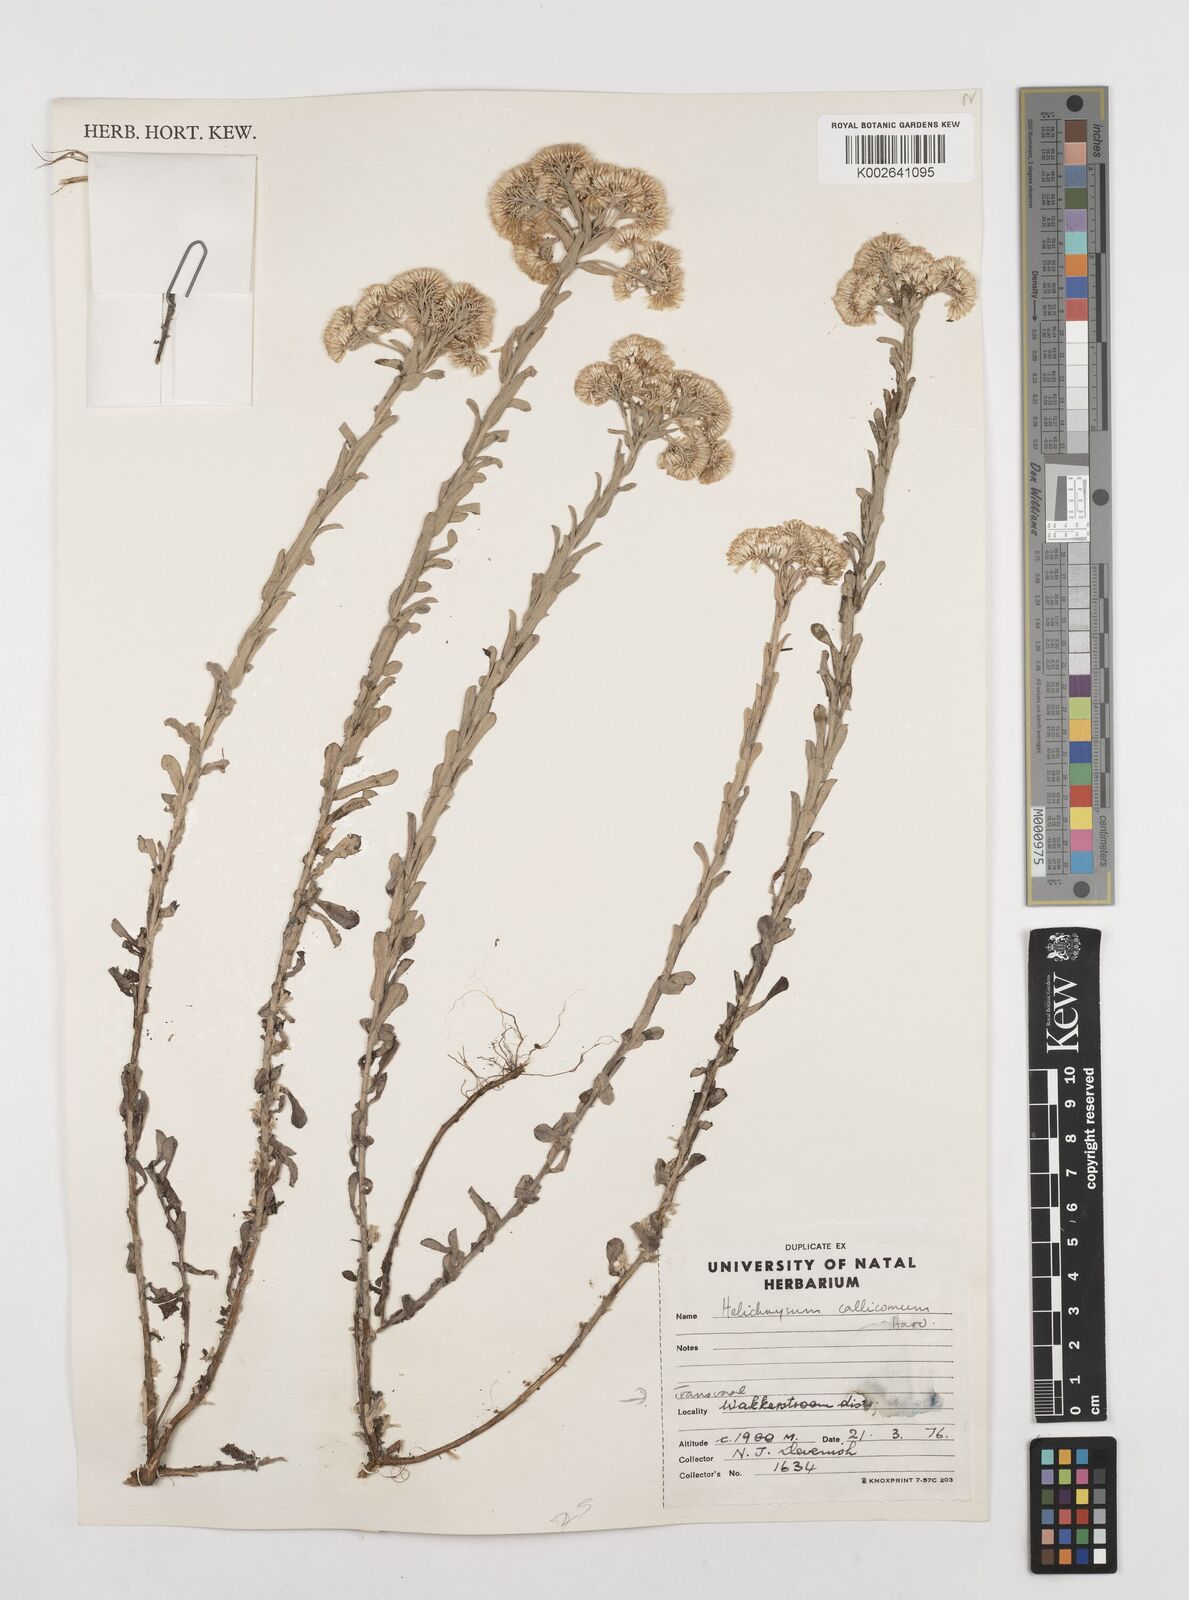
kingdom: Plantae
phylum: Tracheophyta
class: Magnoliopsida
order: Asterales
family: Asteraceae
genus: Helichrysum
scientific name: Helichrysum callicomum
